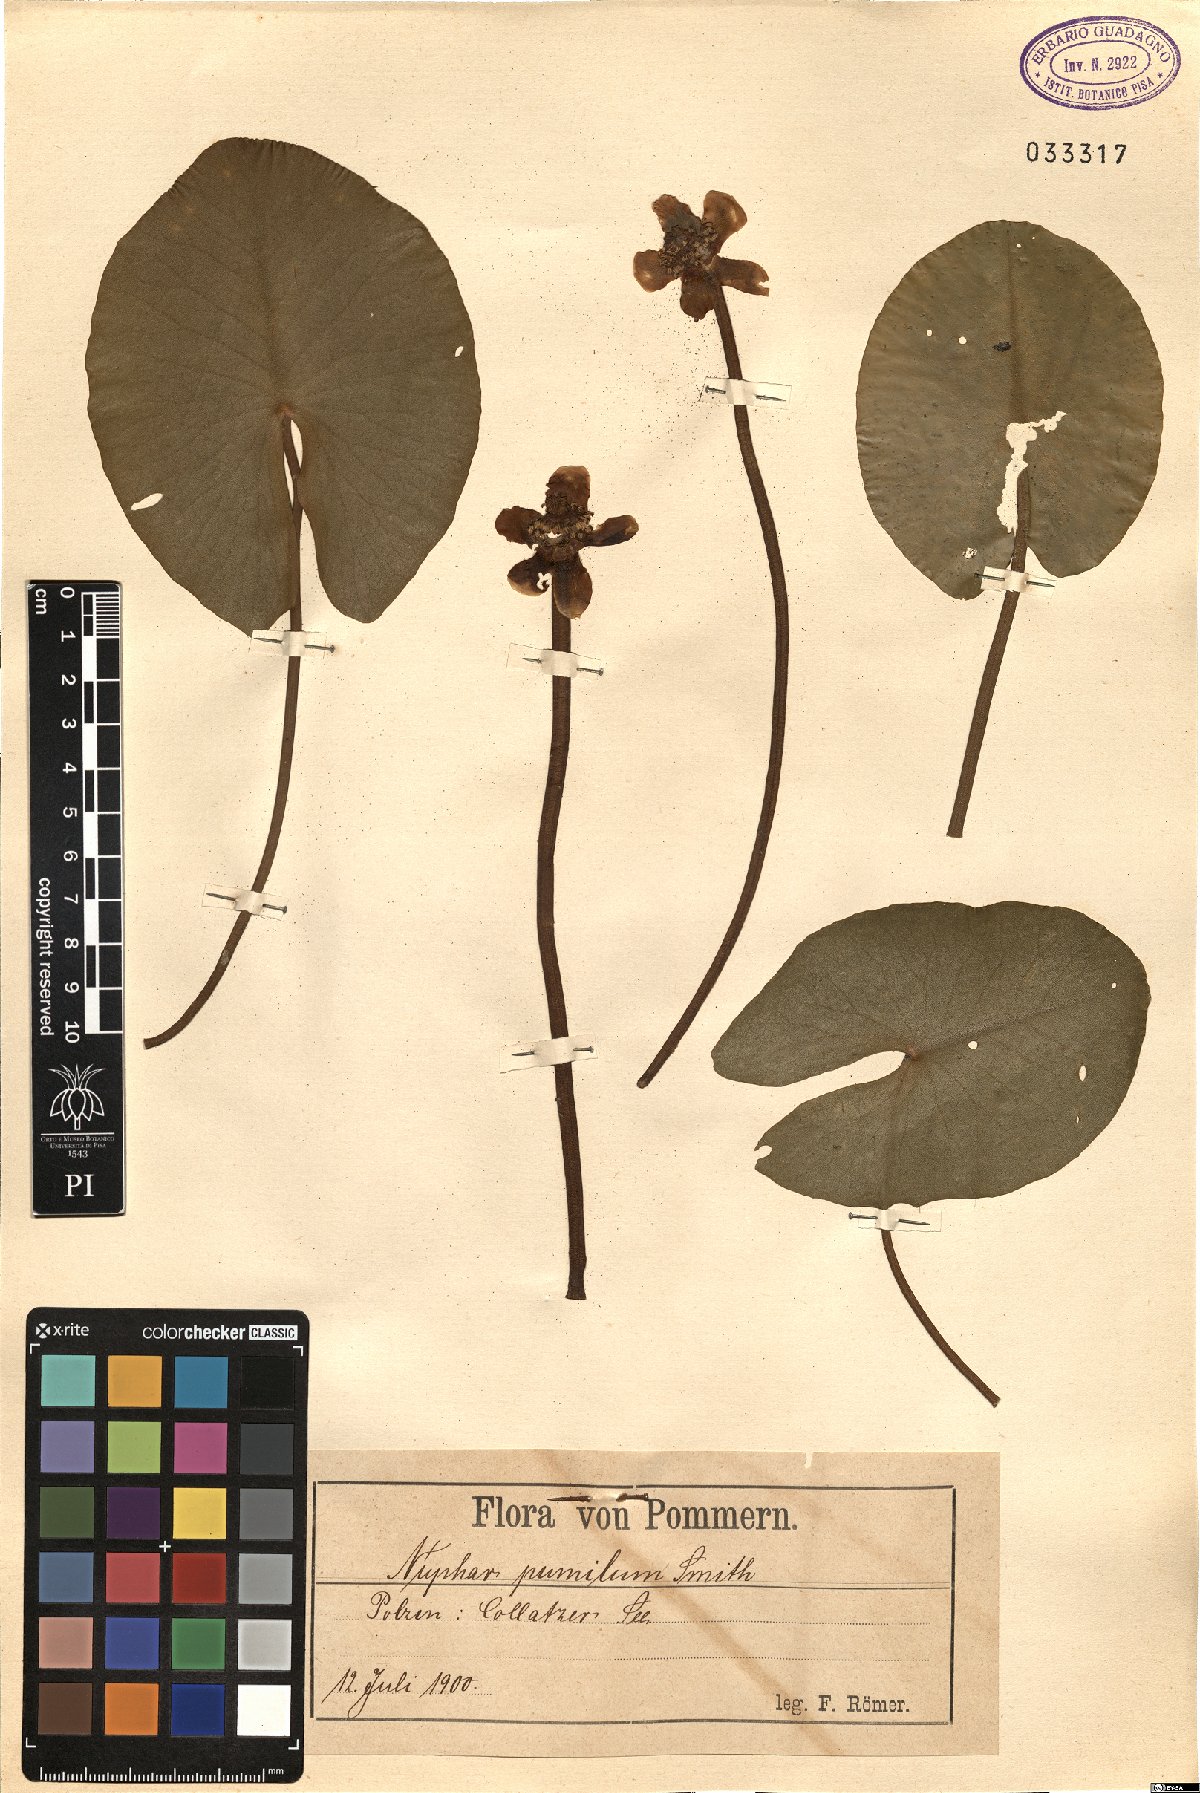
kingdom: Plantae
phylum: Tracheophyta
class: Magnoliopsida
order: Nymphaeales
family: Nymphaeaceae
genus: Nuphar
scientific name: Nuphar pumila
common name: Least water-lily
